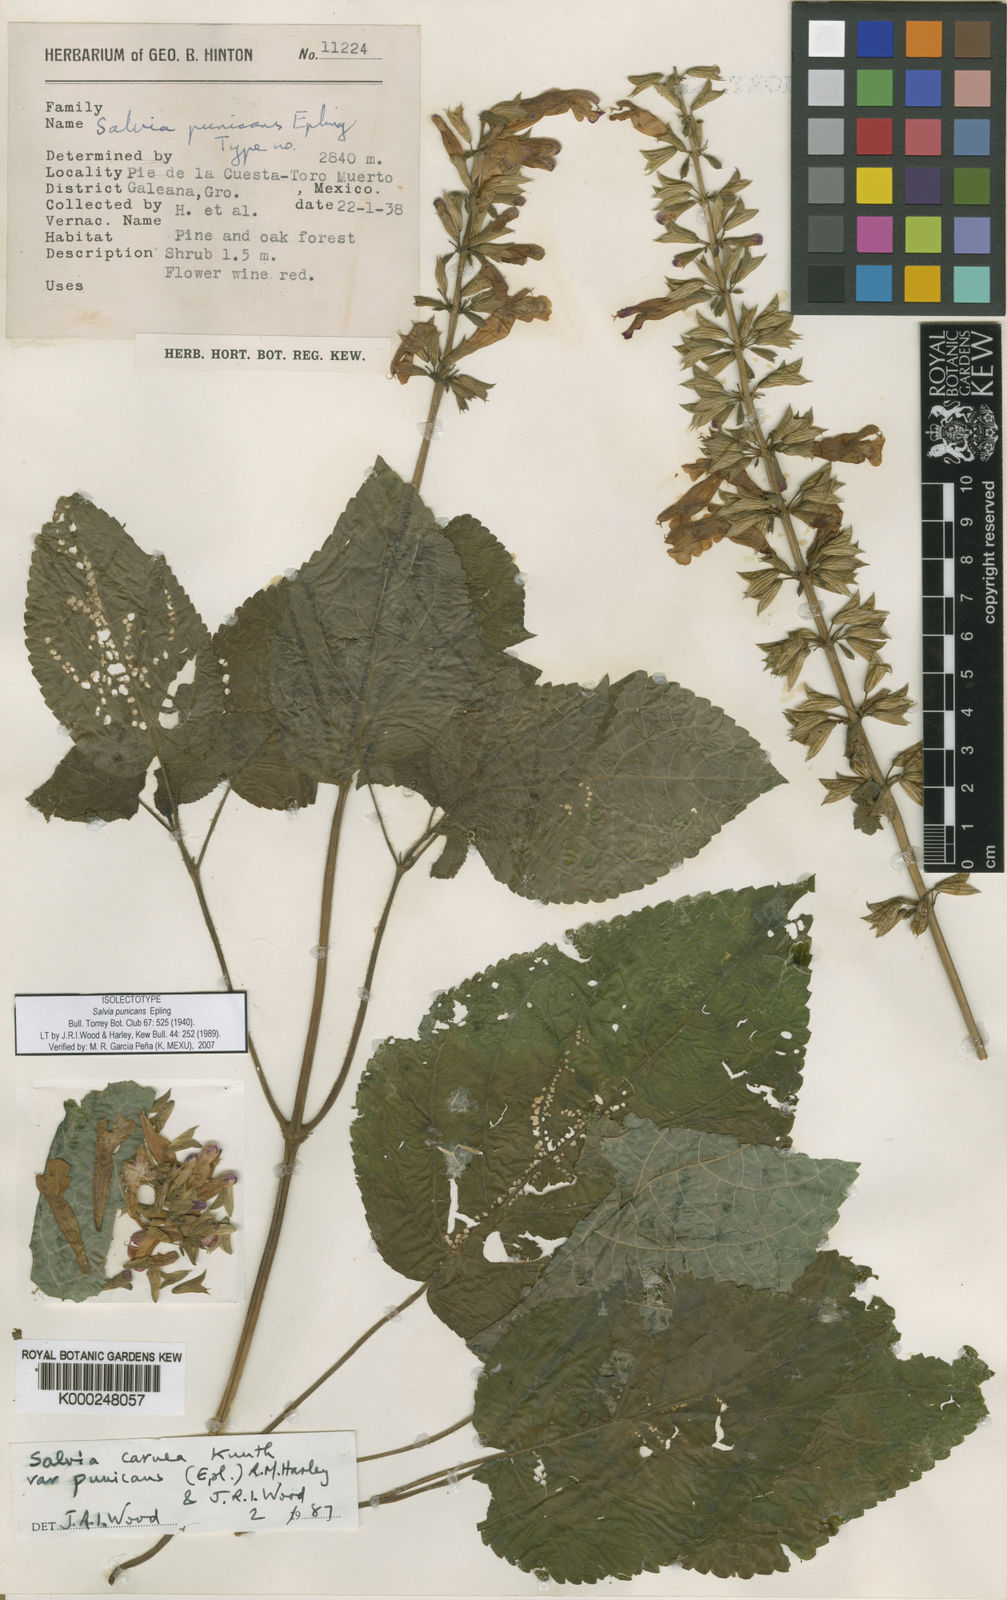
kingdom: Plantae
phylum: Tracheophyta
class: Magnoliopsida
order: Lamiales
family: Lamiaceae
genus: Salvia
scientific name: Salvia punicans
